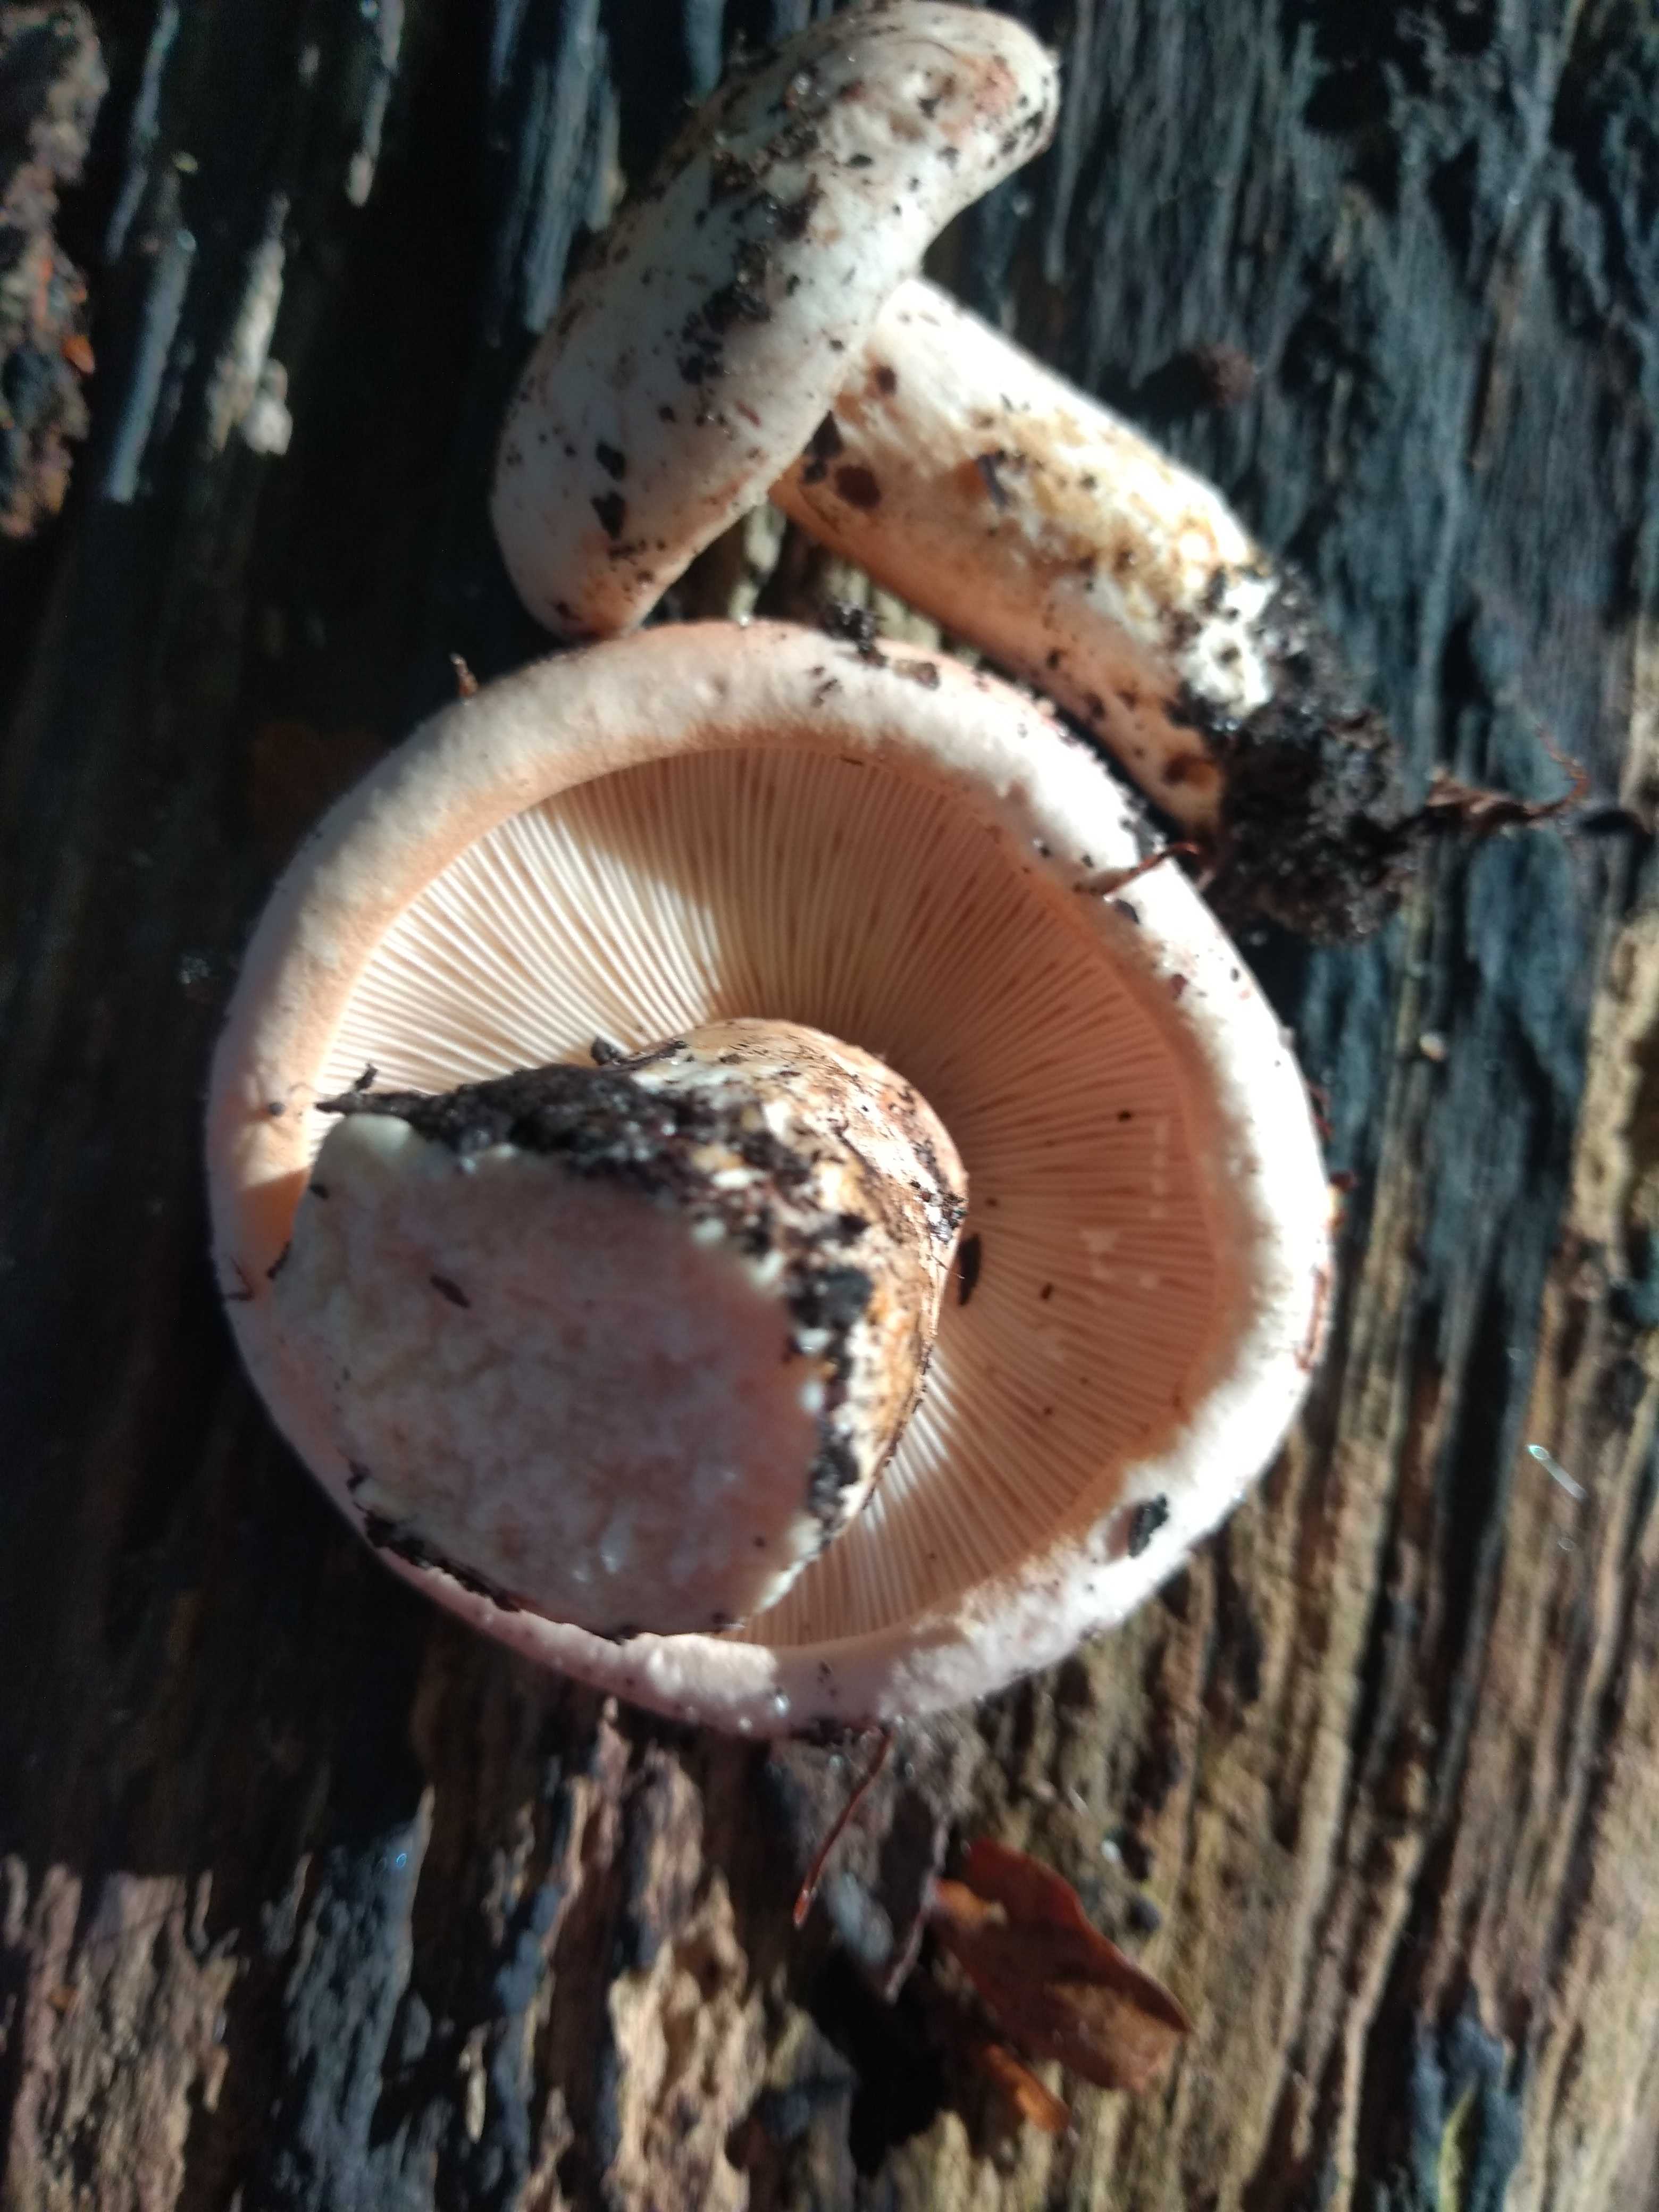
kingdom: Fungi
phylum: Basidiomycota
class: Agaricomycetes
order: Russulales
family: Russulaceae
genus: Lactarius
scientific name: Lactarius pallidus
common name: bleg mælkehat
